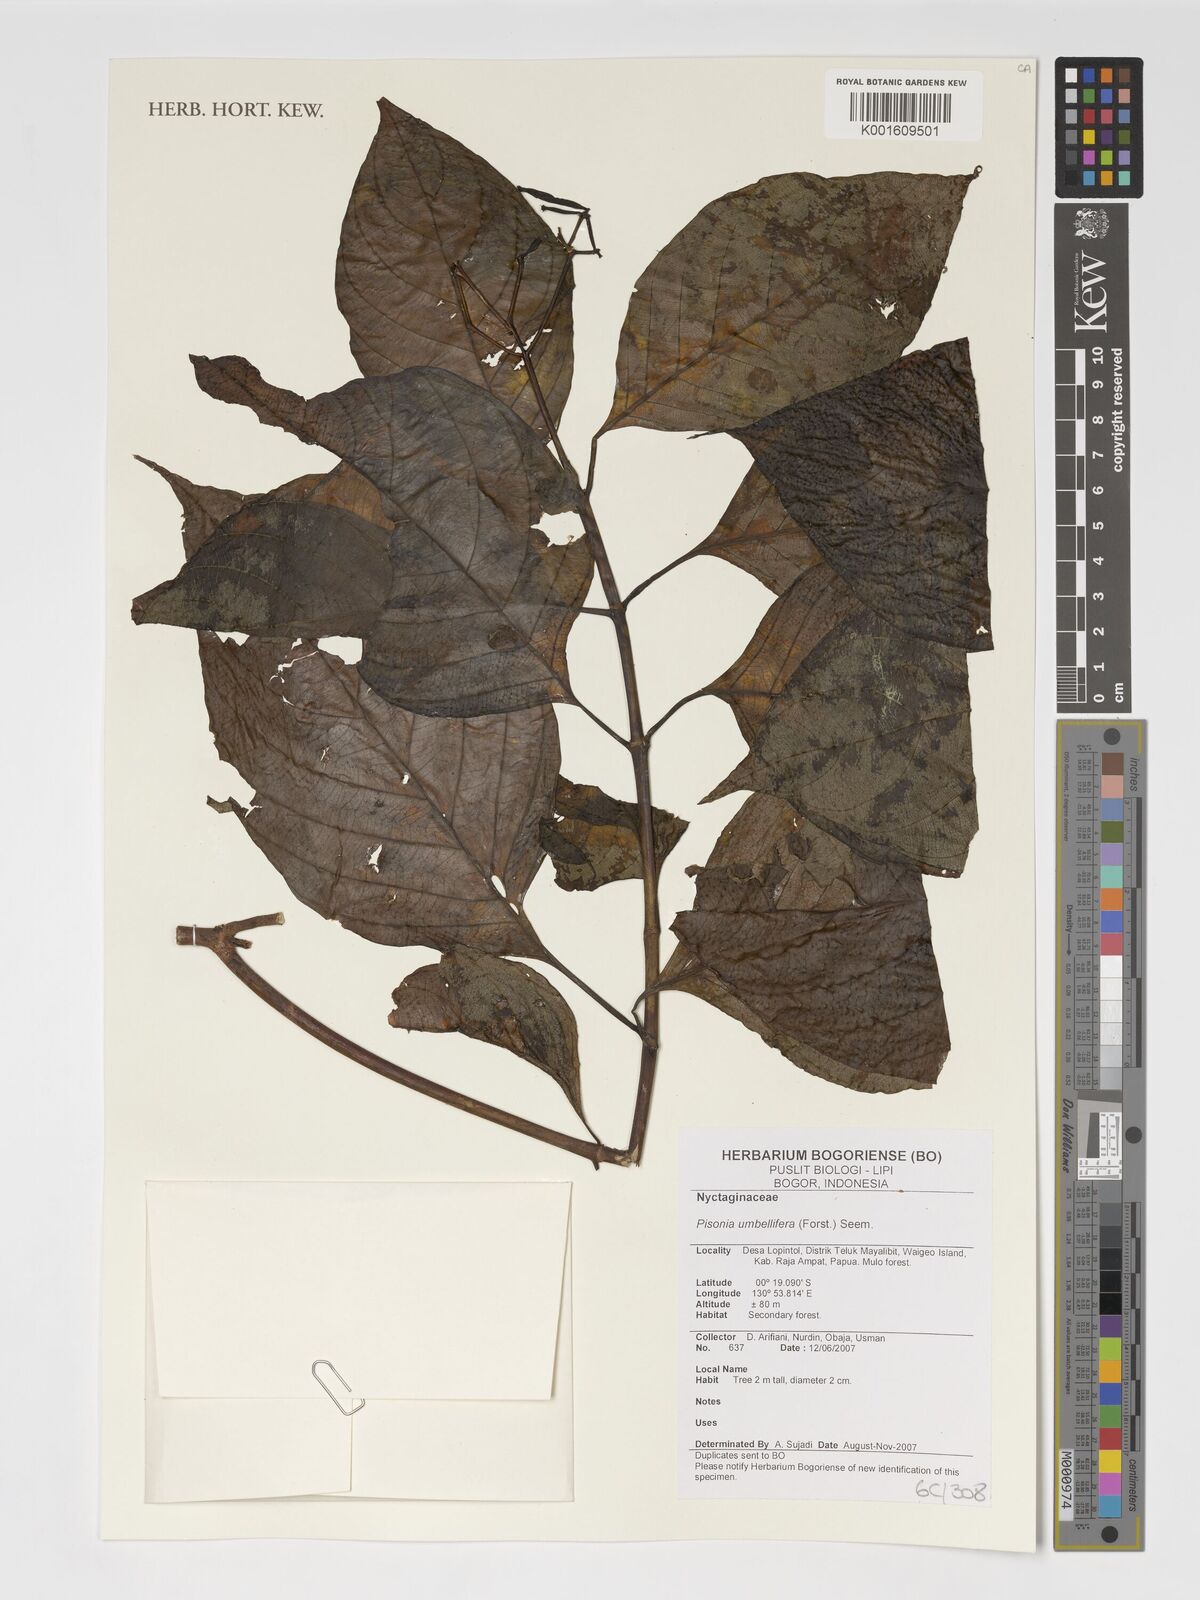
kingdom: Plantae
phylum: Tracheophyta
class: Magnoliopsida
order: Caryophyllales
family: Nyctaginaceae
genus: Ceodes
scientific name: Ceodes umbellifera
